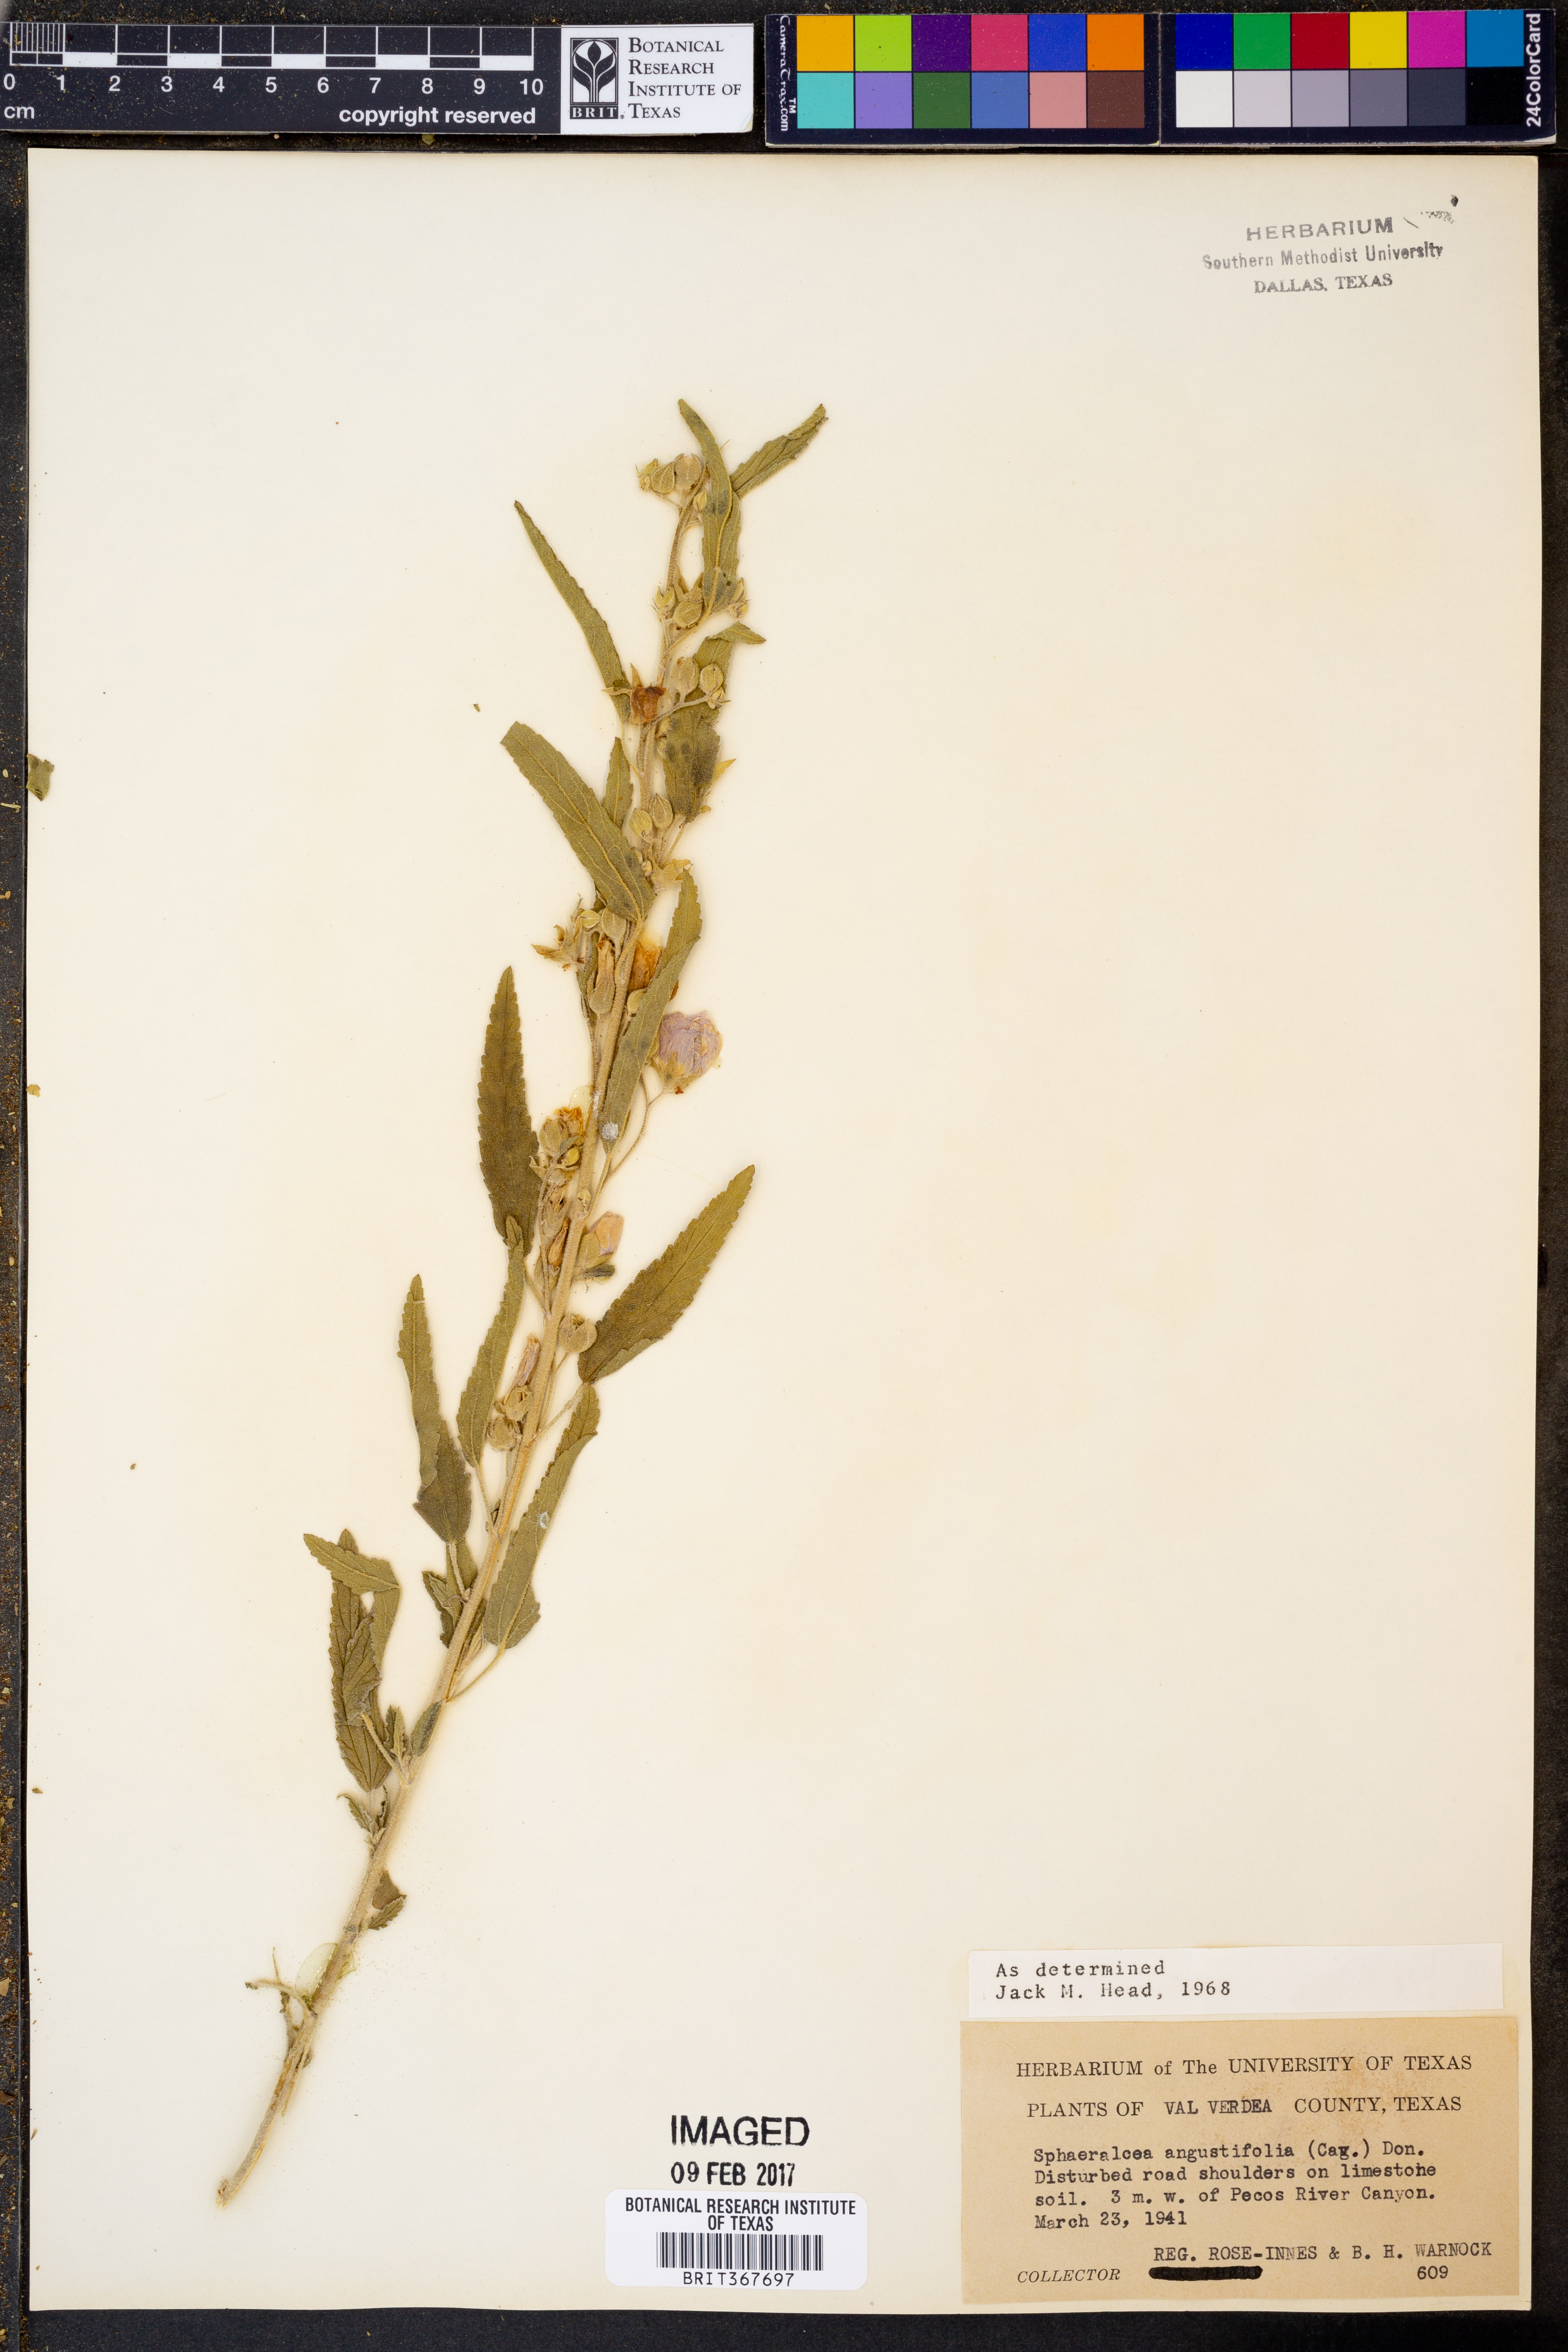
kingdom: Plantae
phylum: Tracheophyta
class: Magnoliopsida
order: Malvales
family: Malvaceae
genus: Sphaeralcea
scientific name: Sphaeralcea angustifolia
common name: Copper globe-mallow
